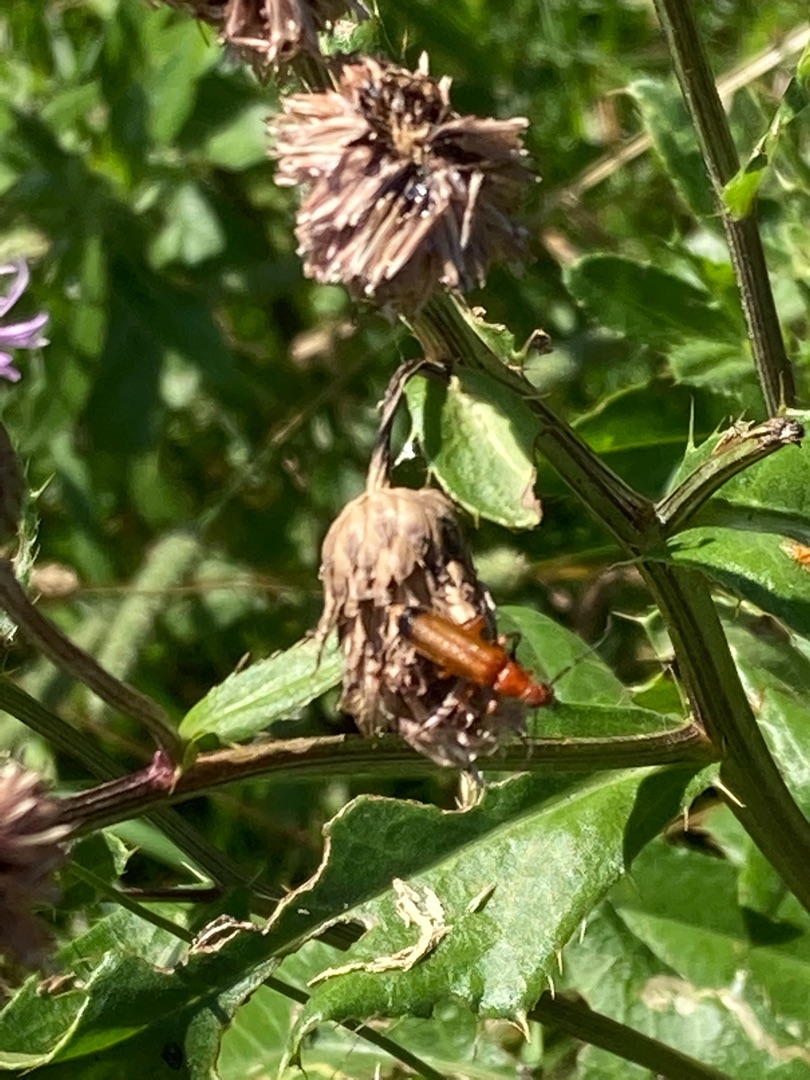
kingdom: Animalia
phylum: Arthropoda
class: Insecta
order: Coleoptera
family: Cantharidae
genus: Rhagonycha
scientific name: Rhagonycha fulva
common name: Præstebille
